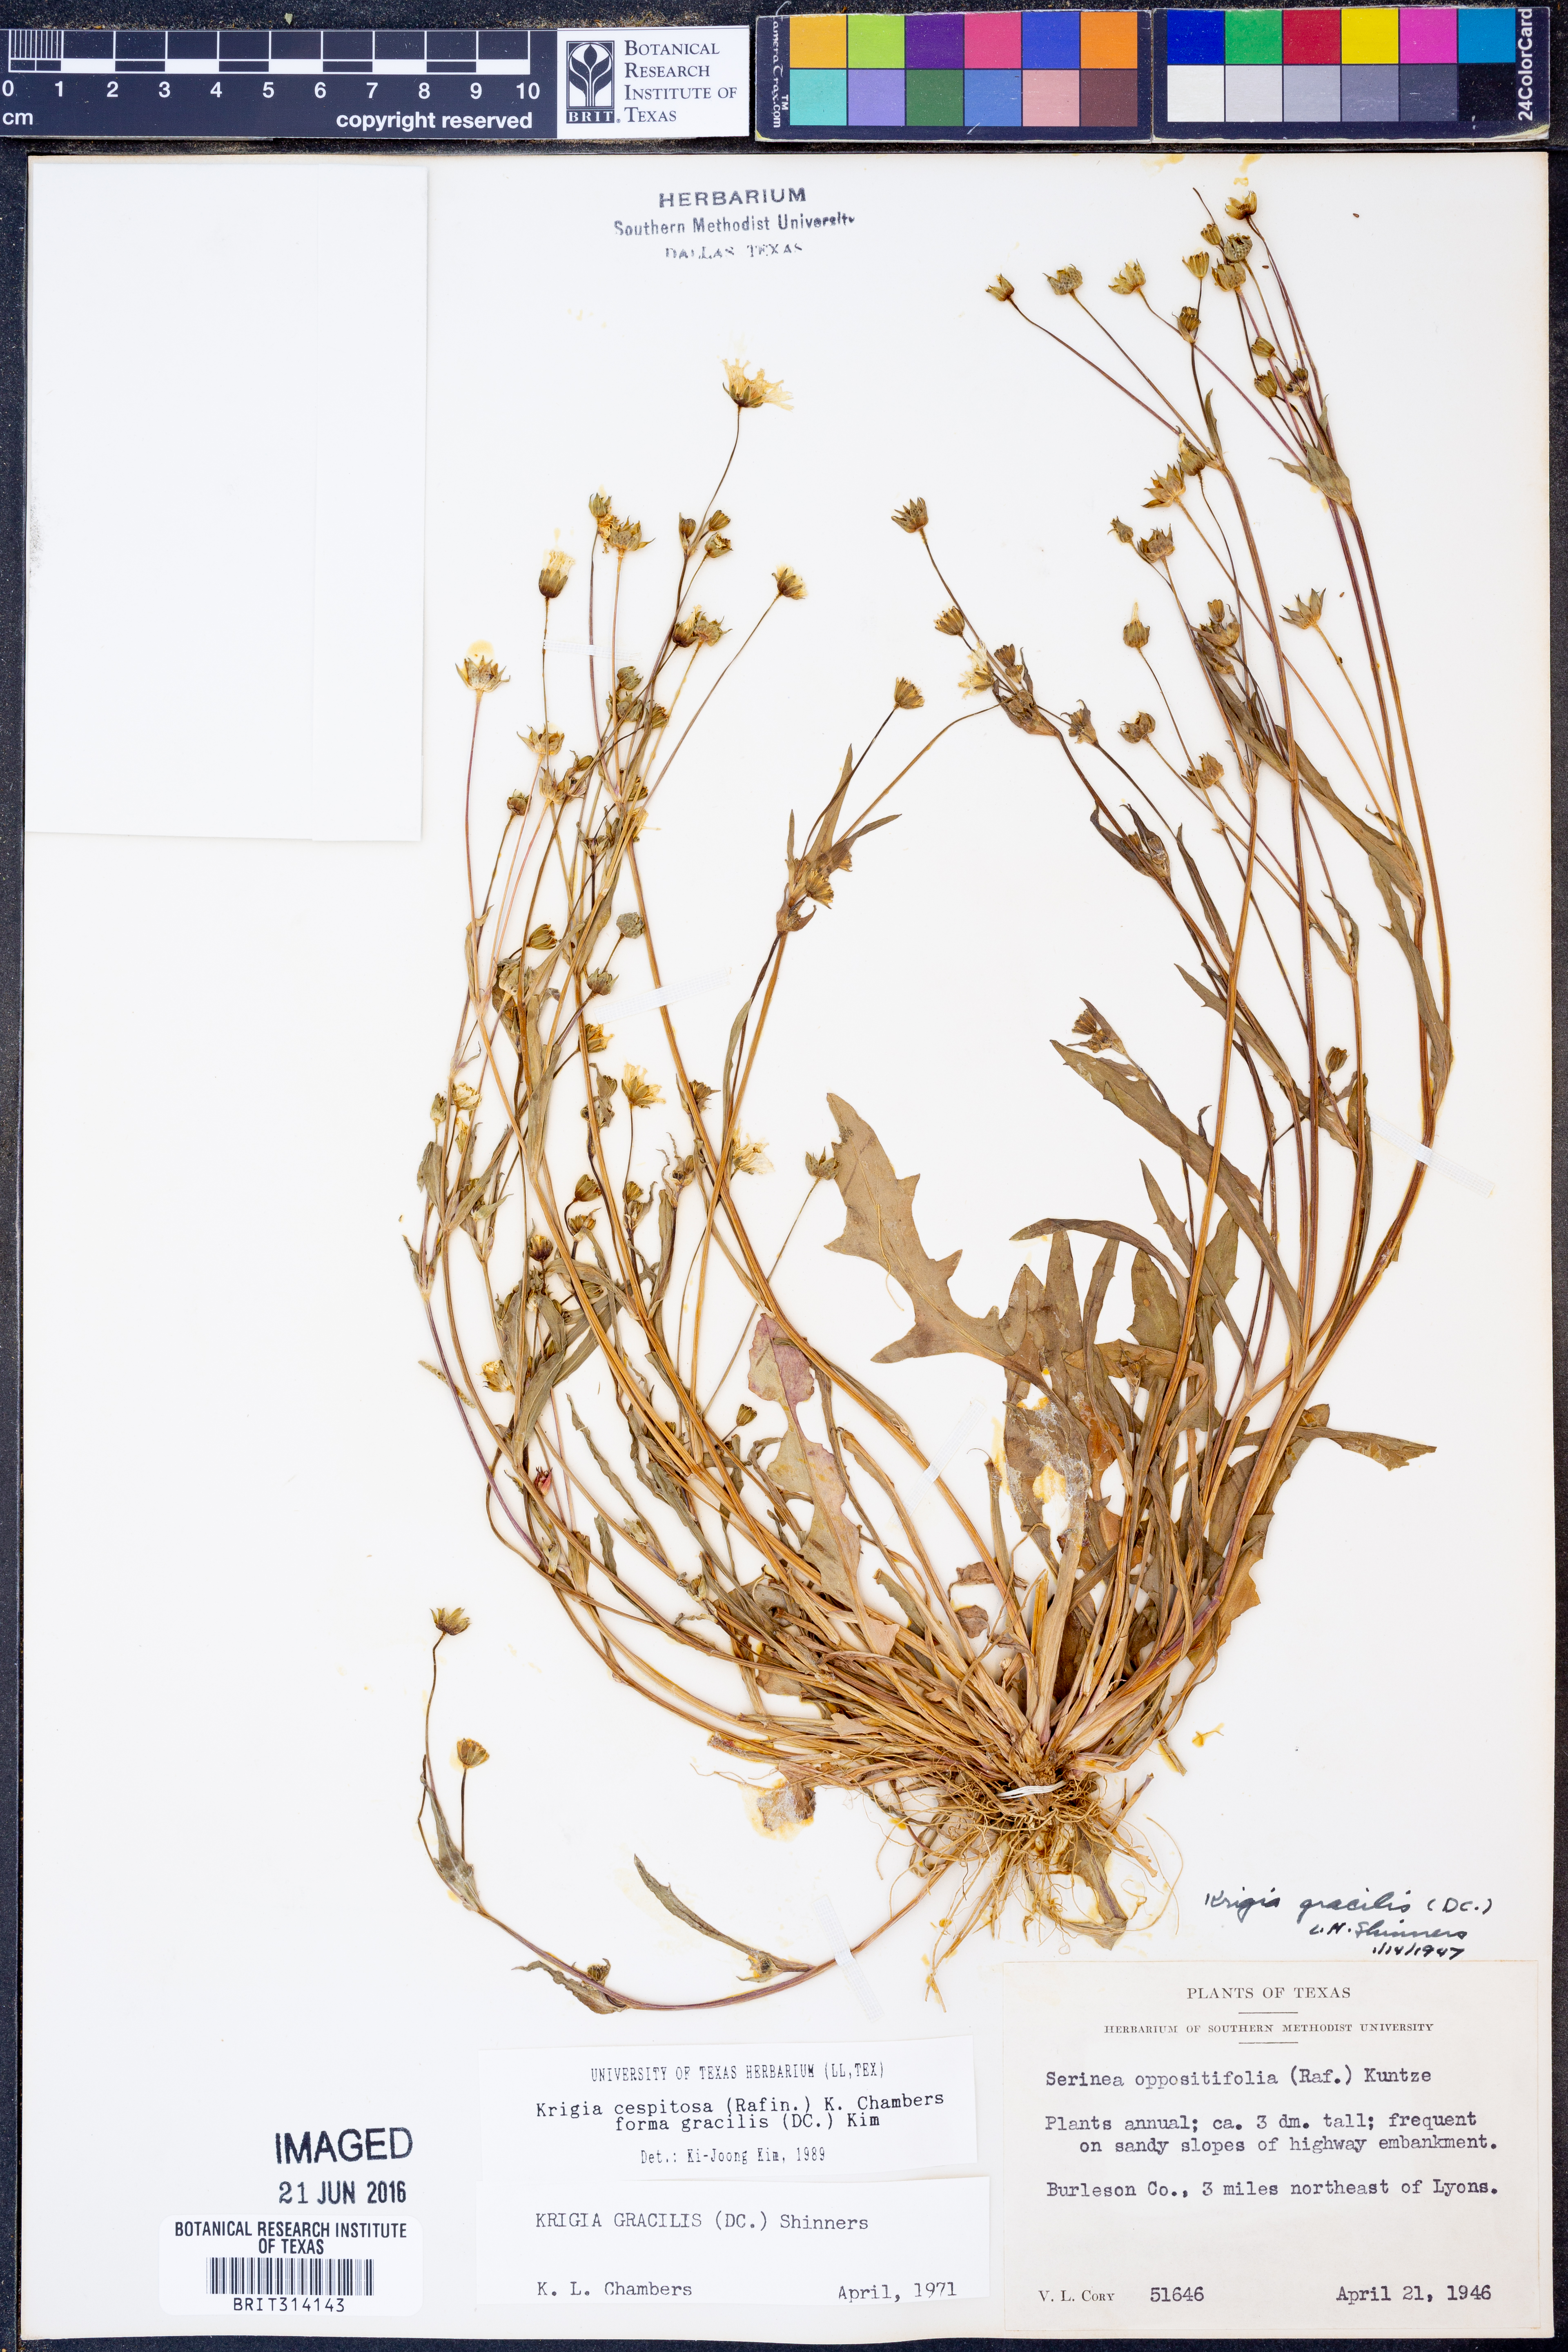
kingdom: Plantae
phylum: Tracheophyta
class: Magnoliopsida
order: Asterales
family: Asteraceae
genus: Krigia
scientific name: Krigia cespitosa
